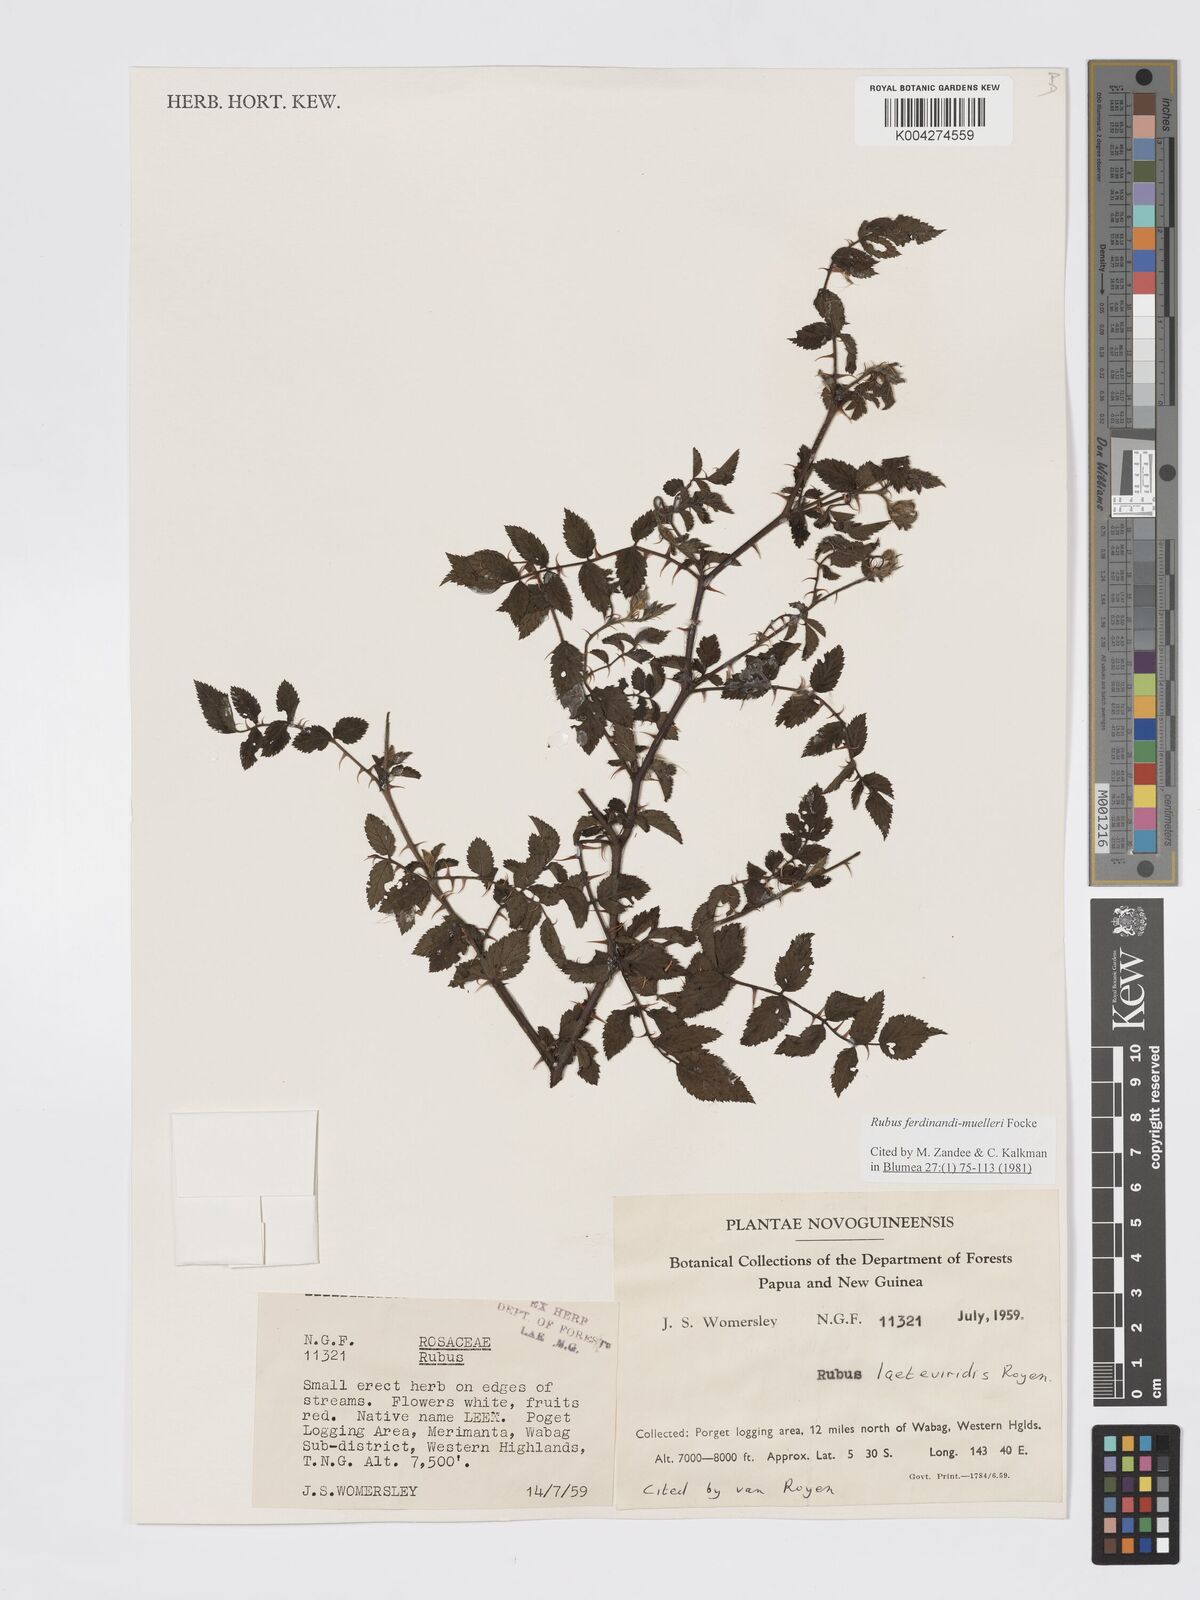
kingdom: Plantae
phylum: Tracheophyta
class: Magnoliopsida
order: Rosales
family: Rosaceae
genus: Rubus
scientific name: Rubus ferdinandimuelleri
